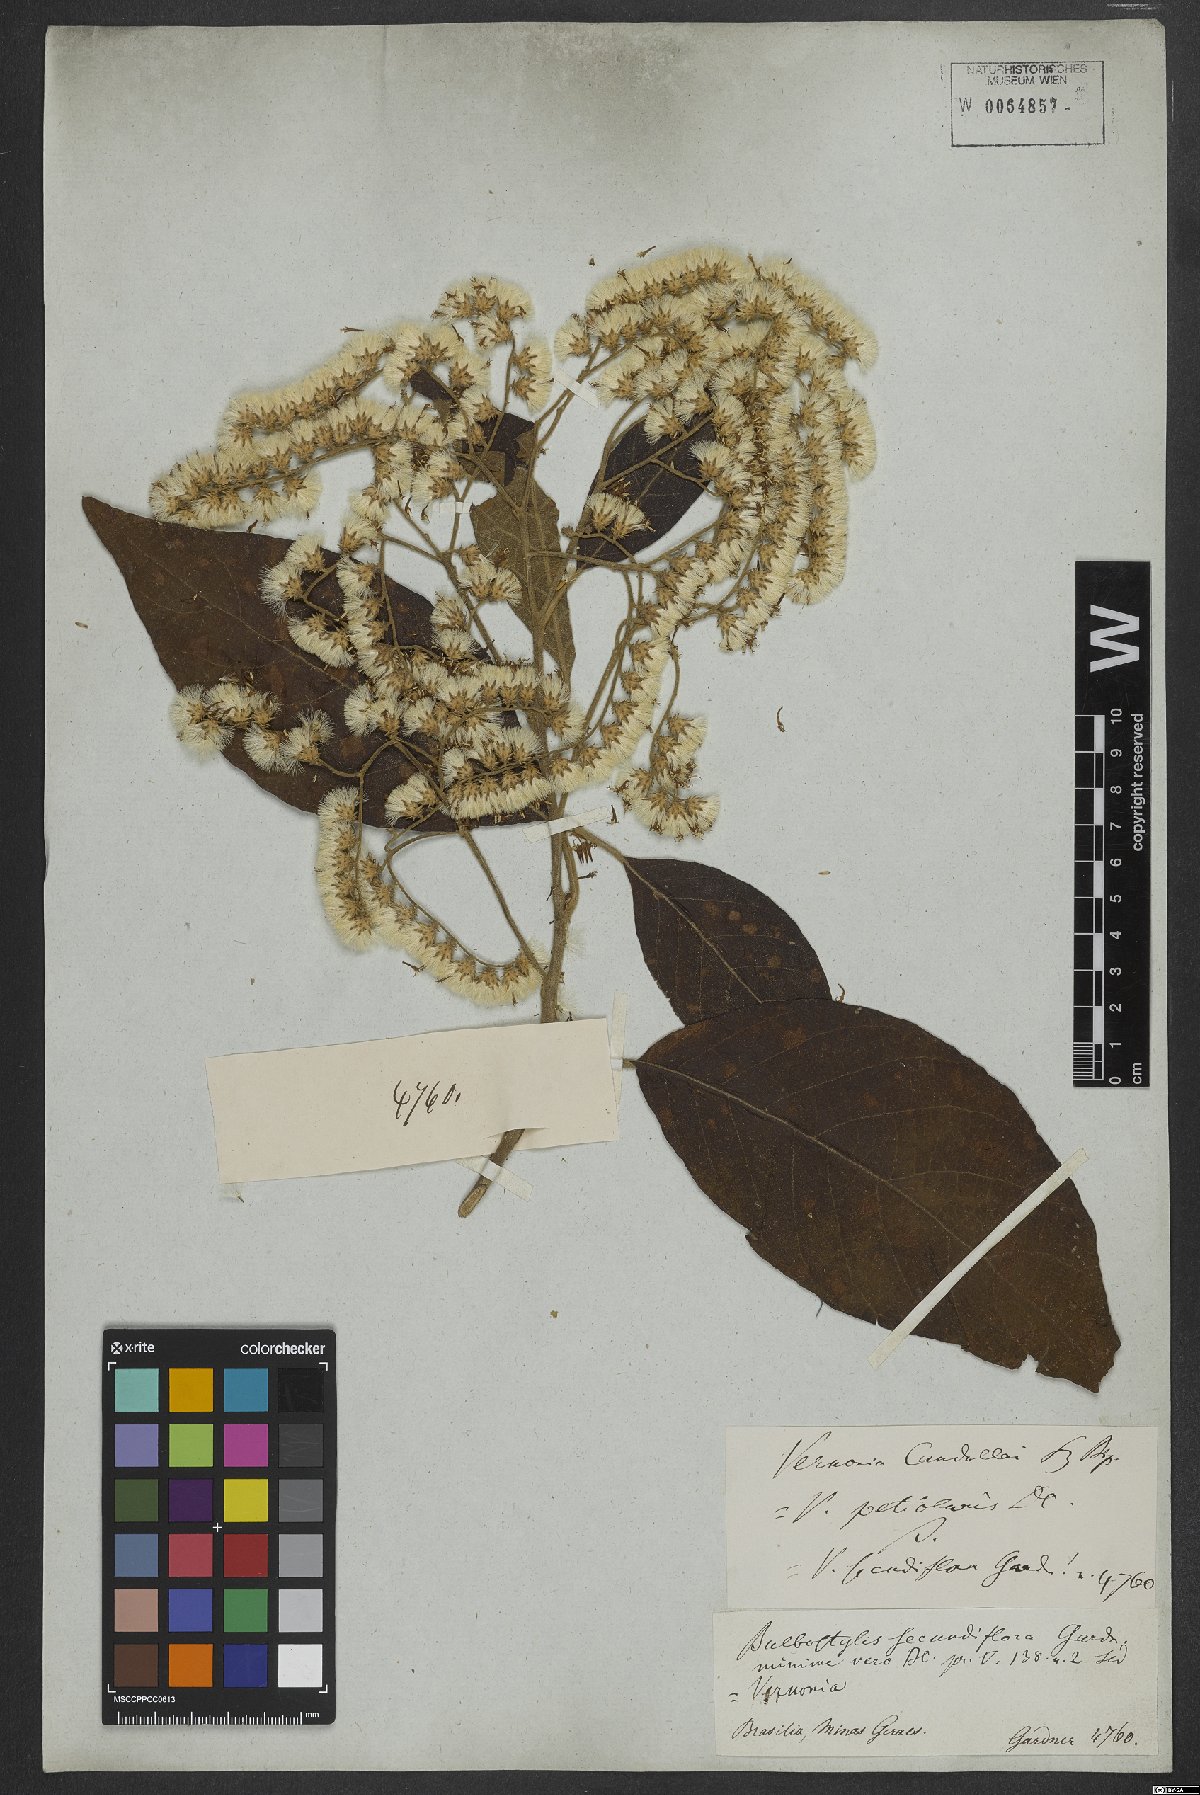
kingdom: Plantae
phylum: Tracheophyta
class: Magnoliopsida
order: Asterales
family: Asteraceae
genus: Vernonanthura
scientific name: Vernonanthura petiolaris
